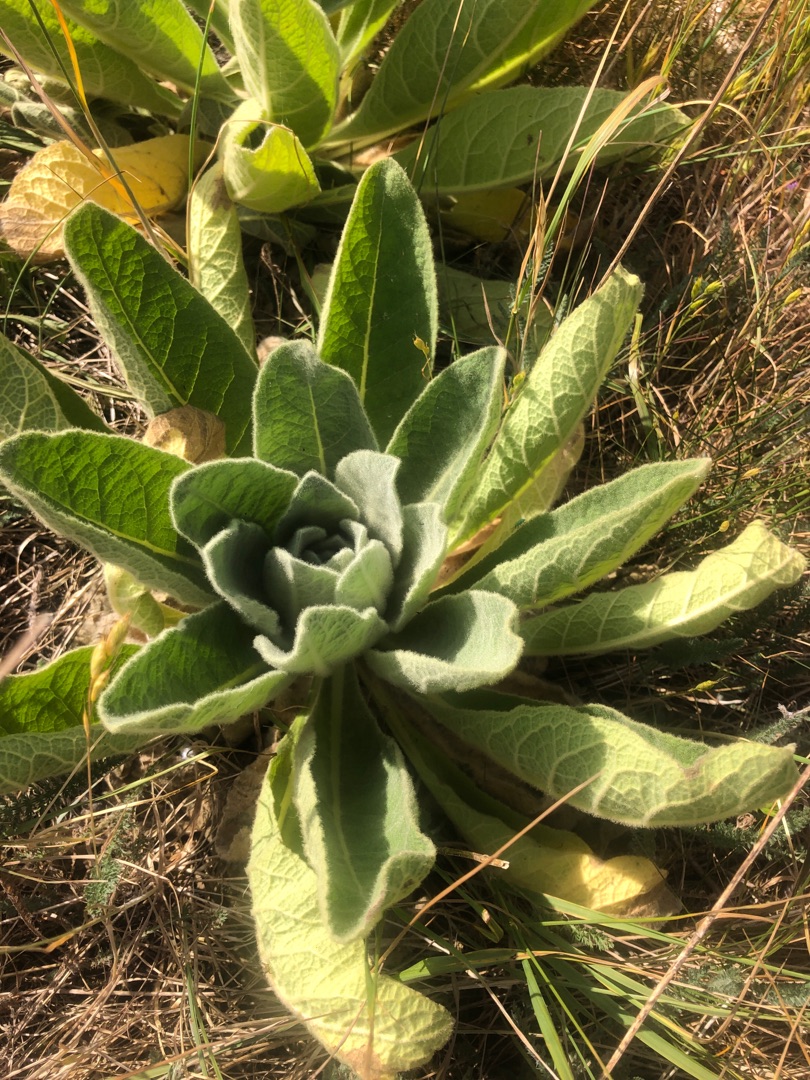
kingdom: Plantae
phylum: Tracheophyta
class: Magnoliopsida
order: Lamiales
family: Scrophulariaceae
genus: Verbascum
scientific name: Verbascum thapsus
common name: Filtbladet kongelys
